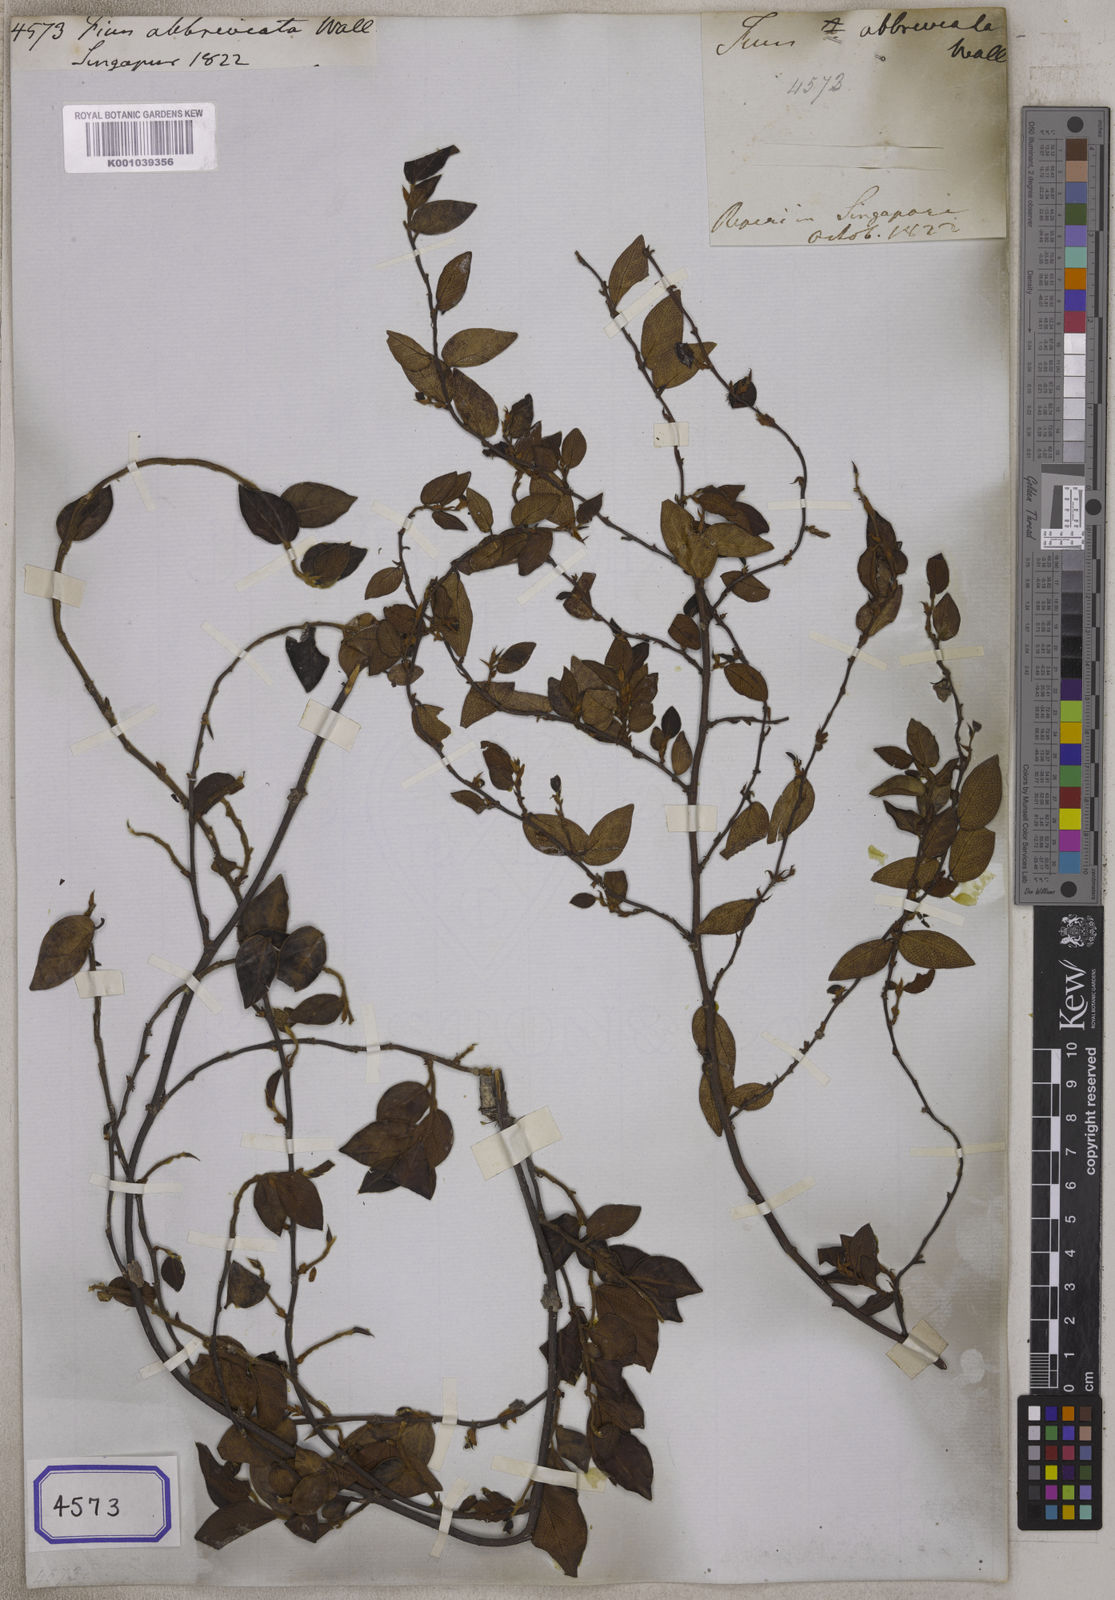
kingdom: Plantae
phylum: Tracheophyta
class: Magnoliopsida
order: Rosales
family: Moraceae
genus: Ficus
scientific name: Ficus excavata
